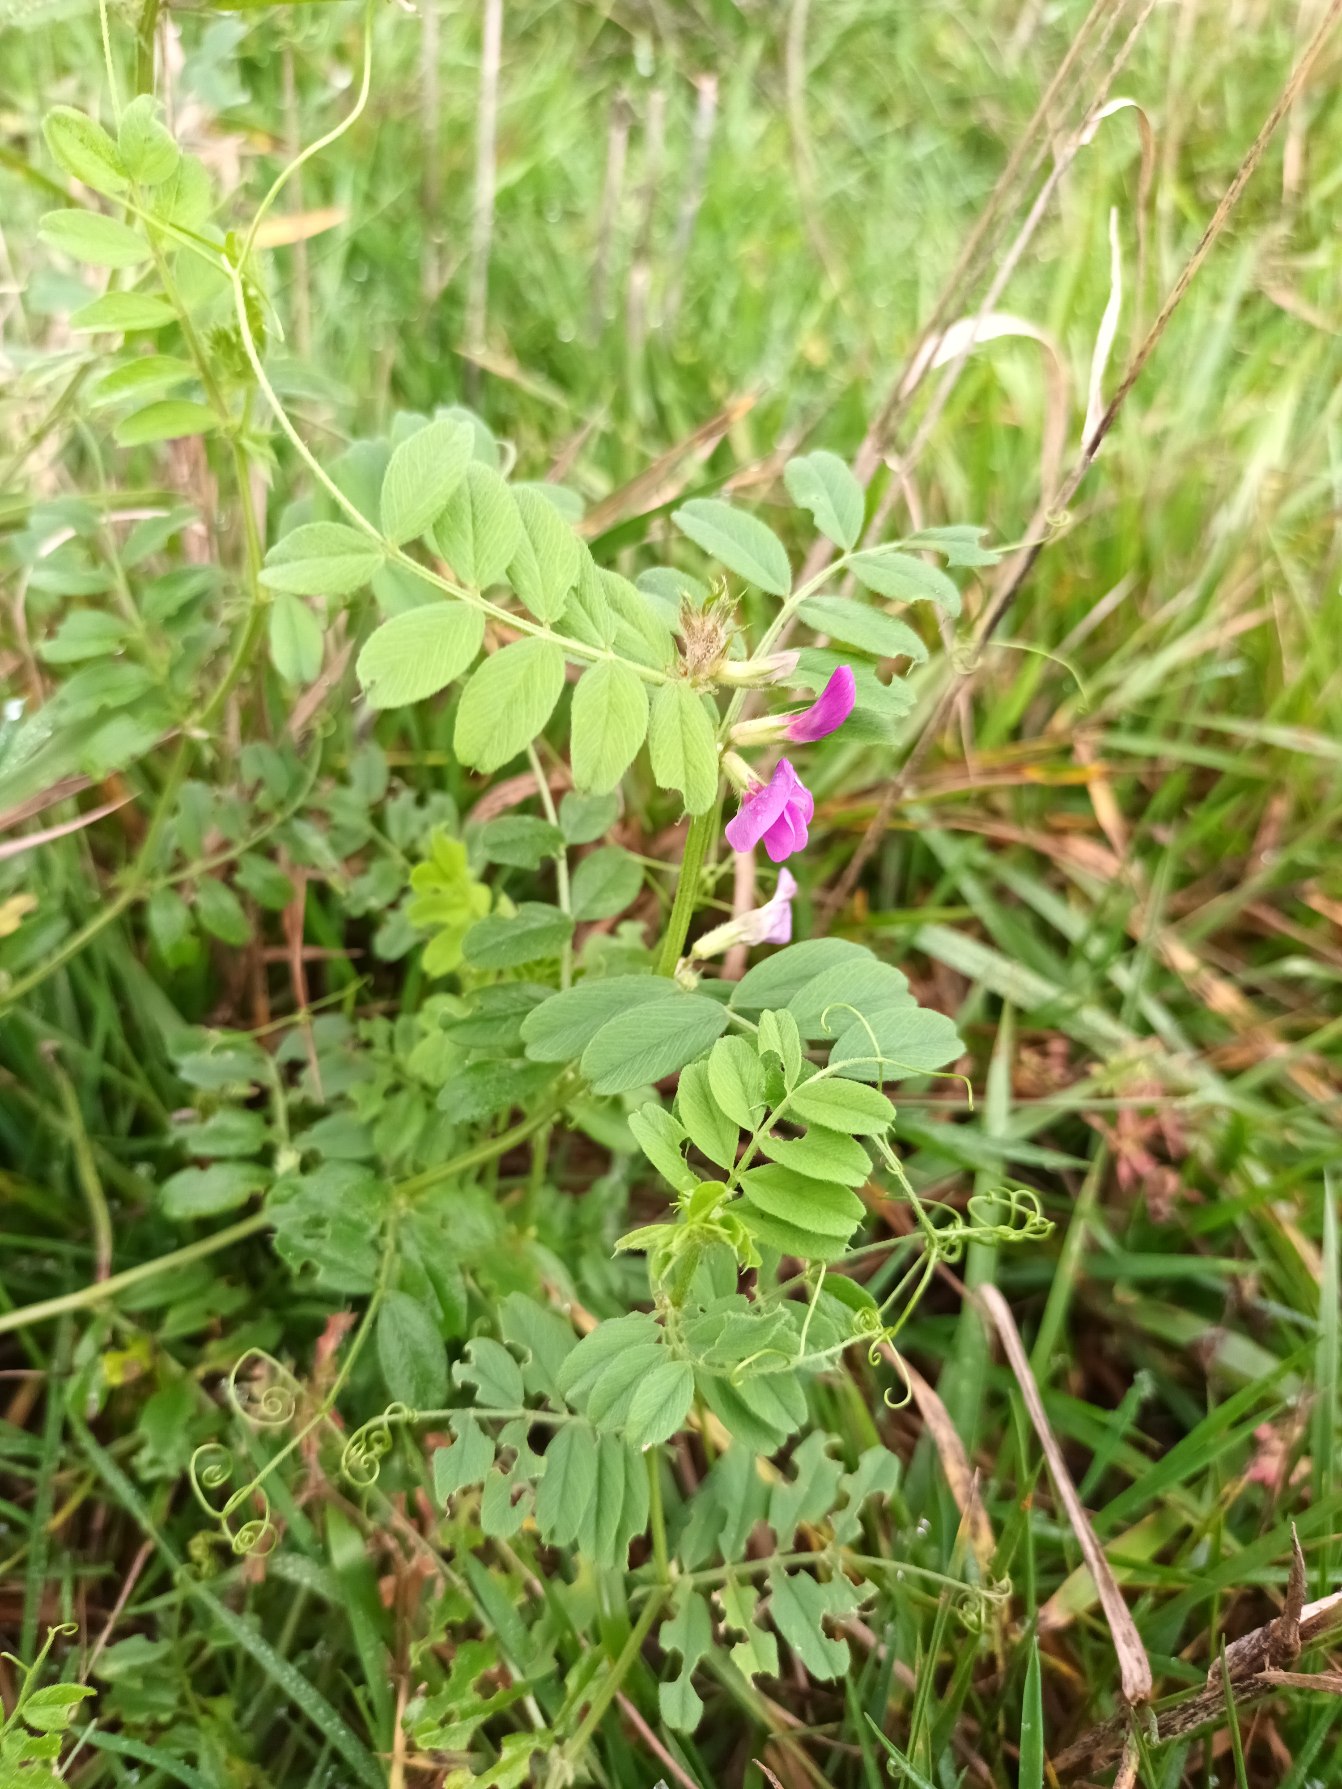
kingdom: Plantae
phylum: Tracheophyta
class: Magnoliopsida
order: Fabales
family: Fabaceae
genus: Vicia
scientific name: Vicia sativa
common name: Ager-vikke
